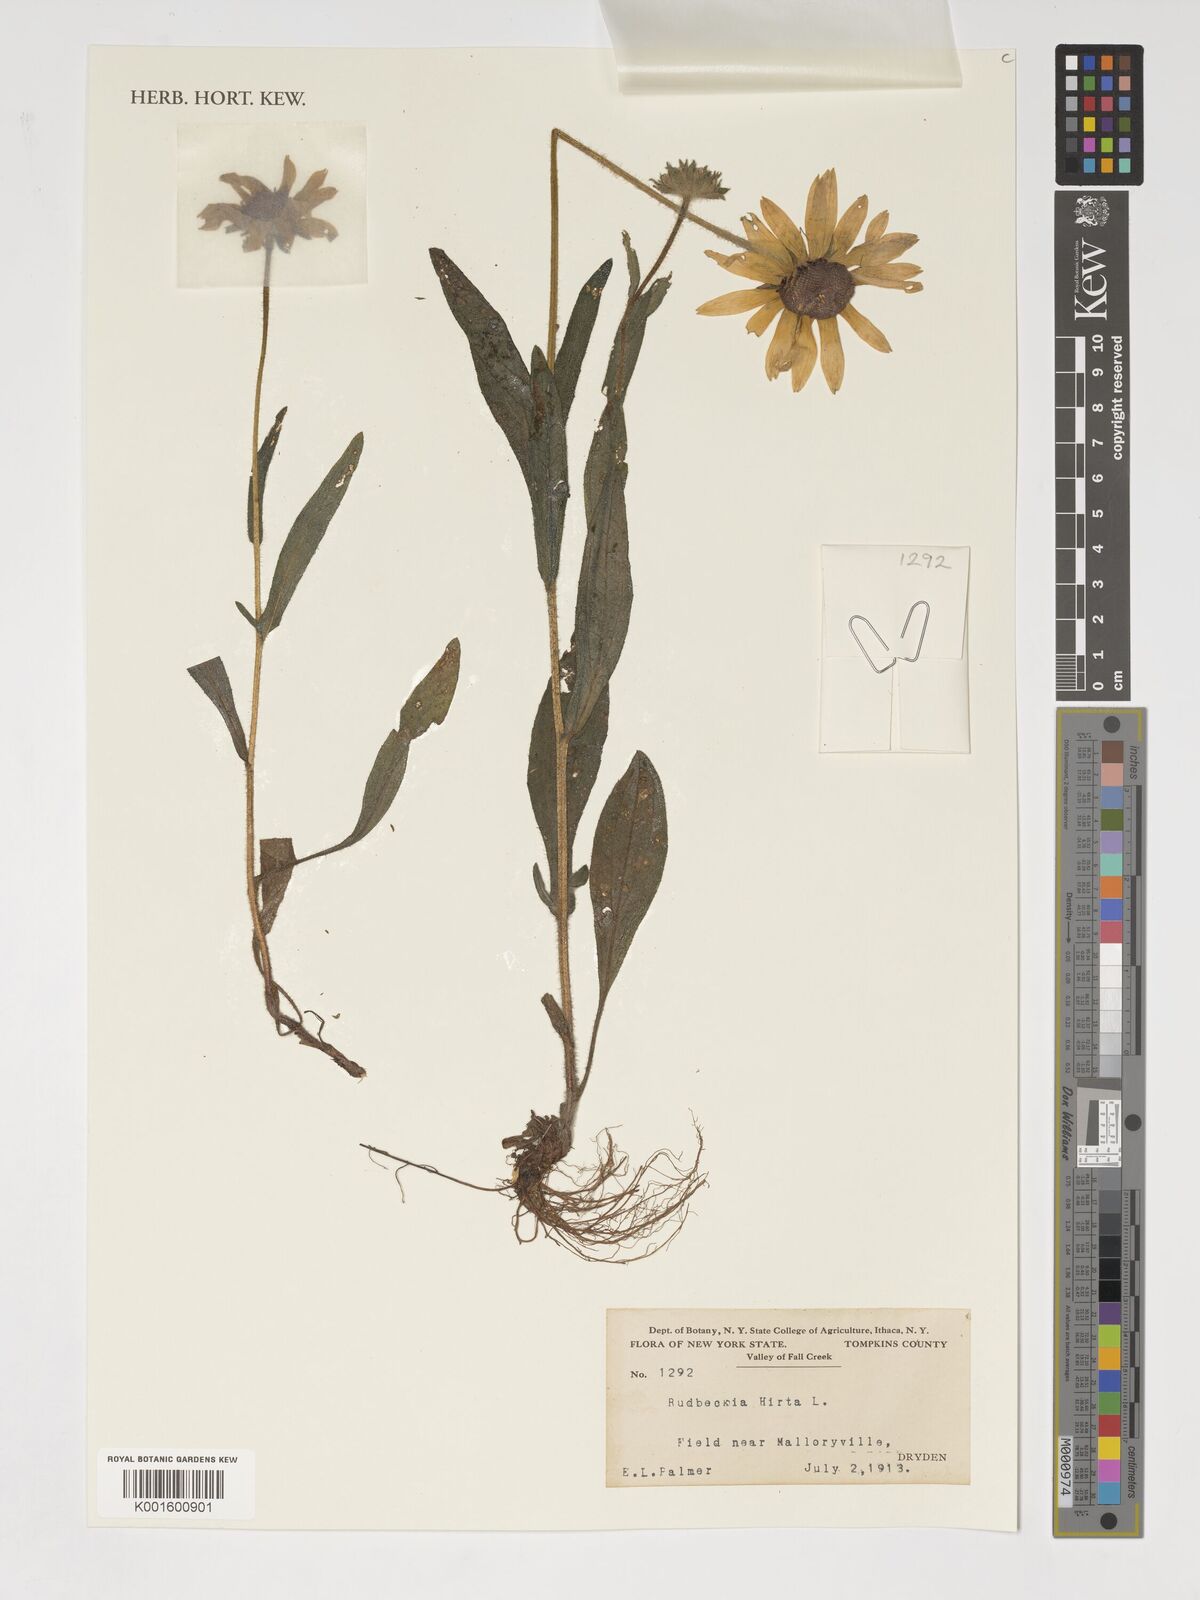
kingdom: Plantae
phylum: Tracheophyta
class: Magnoliopsida
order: Asterales
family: Asteraceae
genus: Rudbeckia
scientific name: Rudbeckia hirta
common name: Black-eyed-susan
